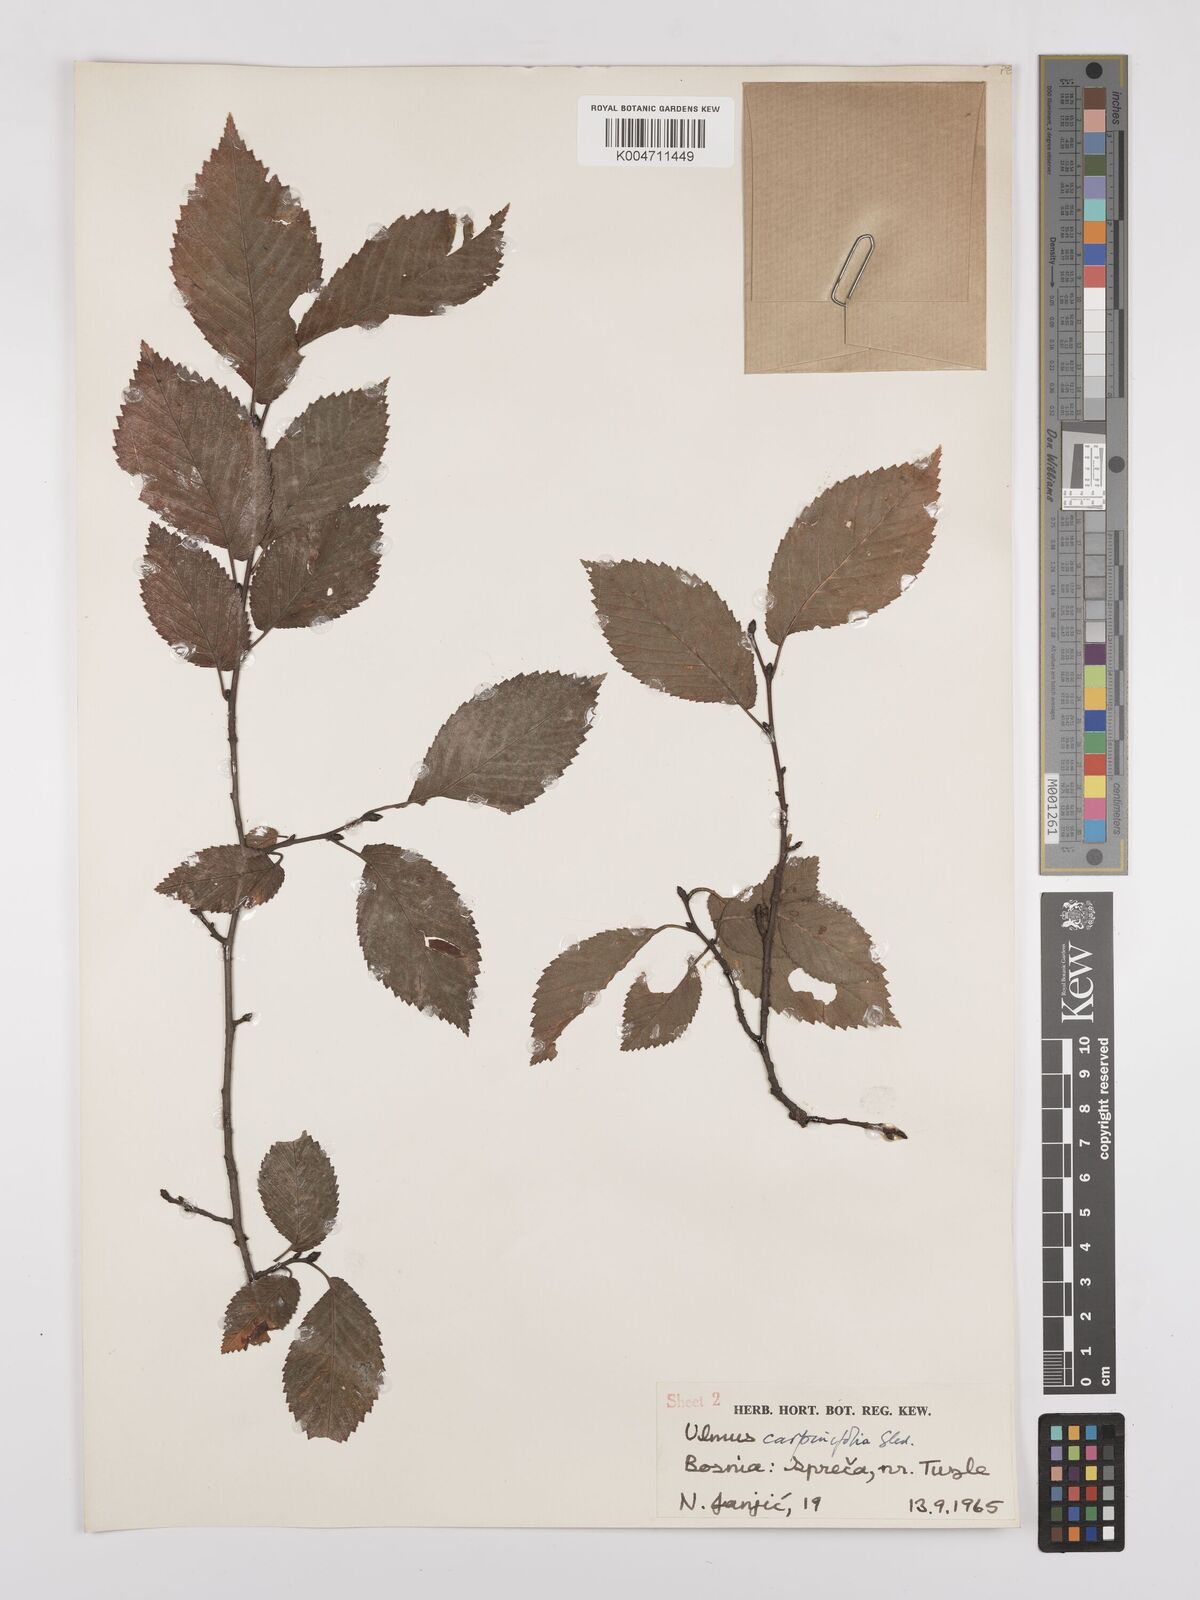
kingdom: Plantae
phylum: Tracheophyta
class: Magnoliopsida
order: Rosales
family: Ulmaceae
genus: Ulmus
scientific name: Ulmus minor
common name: Small-leaved elm
